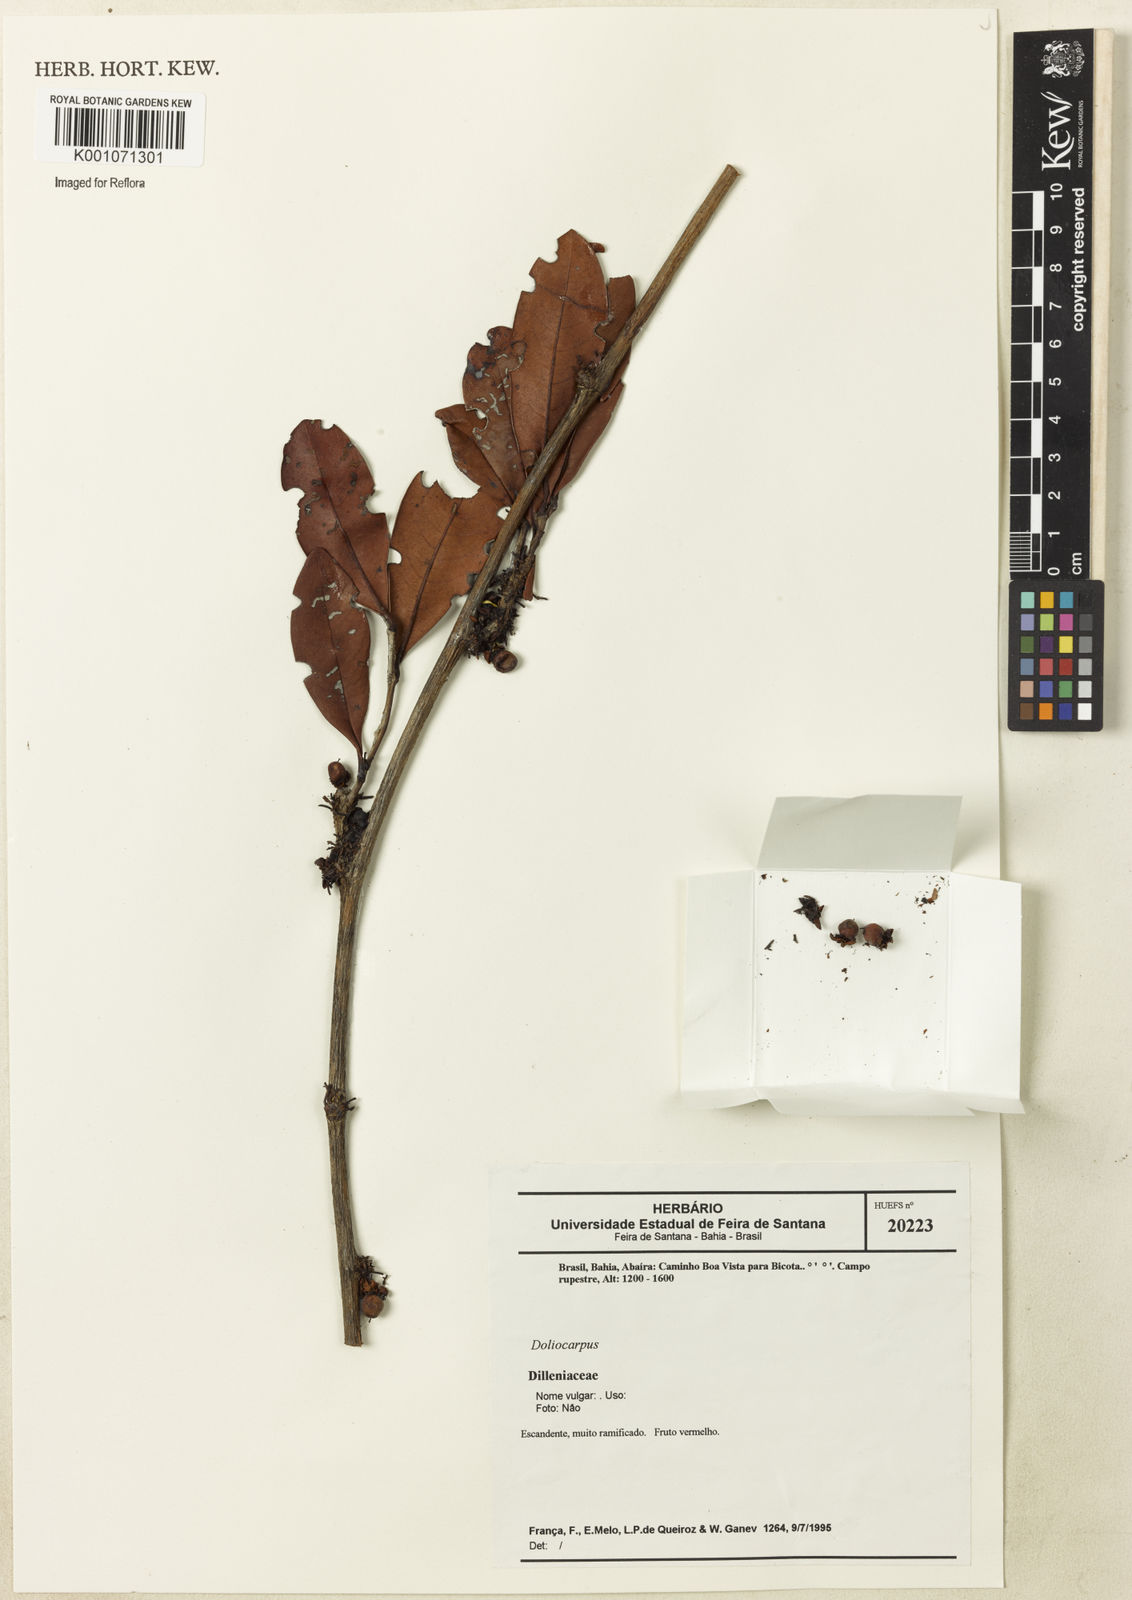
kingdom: Plantae
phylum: Tracheophyta
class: Magnoliopsida
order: Dilleniales
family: Dilleniaceae
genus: Doliocarpus
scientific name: Doliocarpus
